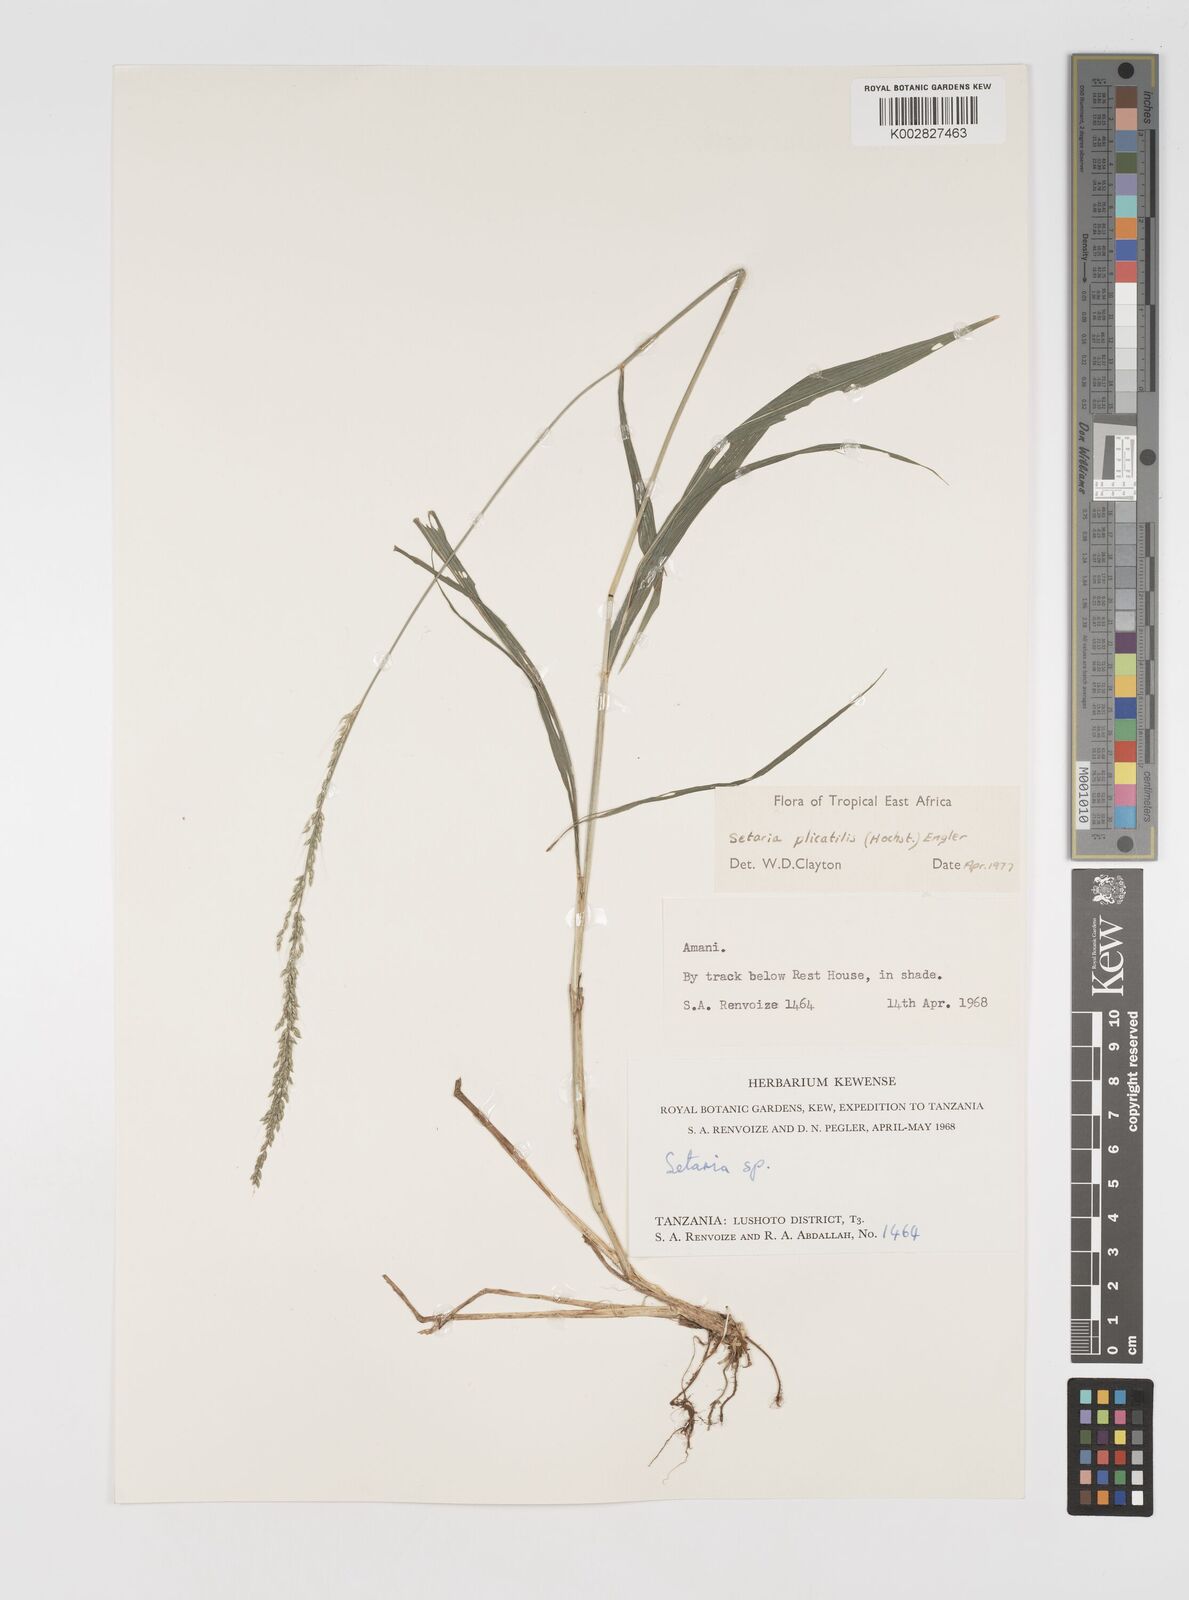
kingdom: Plantae
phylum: Tracheophyta
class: Liliopsida
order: Poales
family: Poaceae
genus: Setaria
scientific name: Setaria megaphylla
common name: Bigleaf bristlegrass
